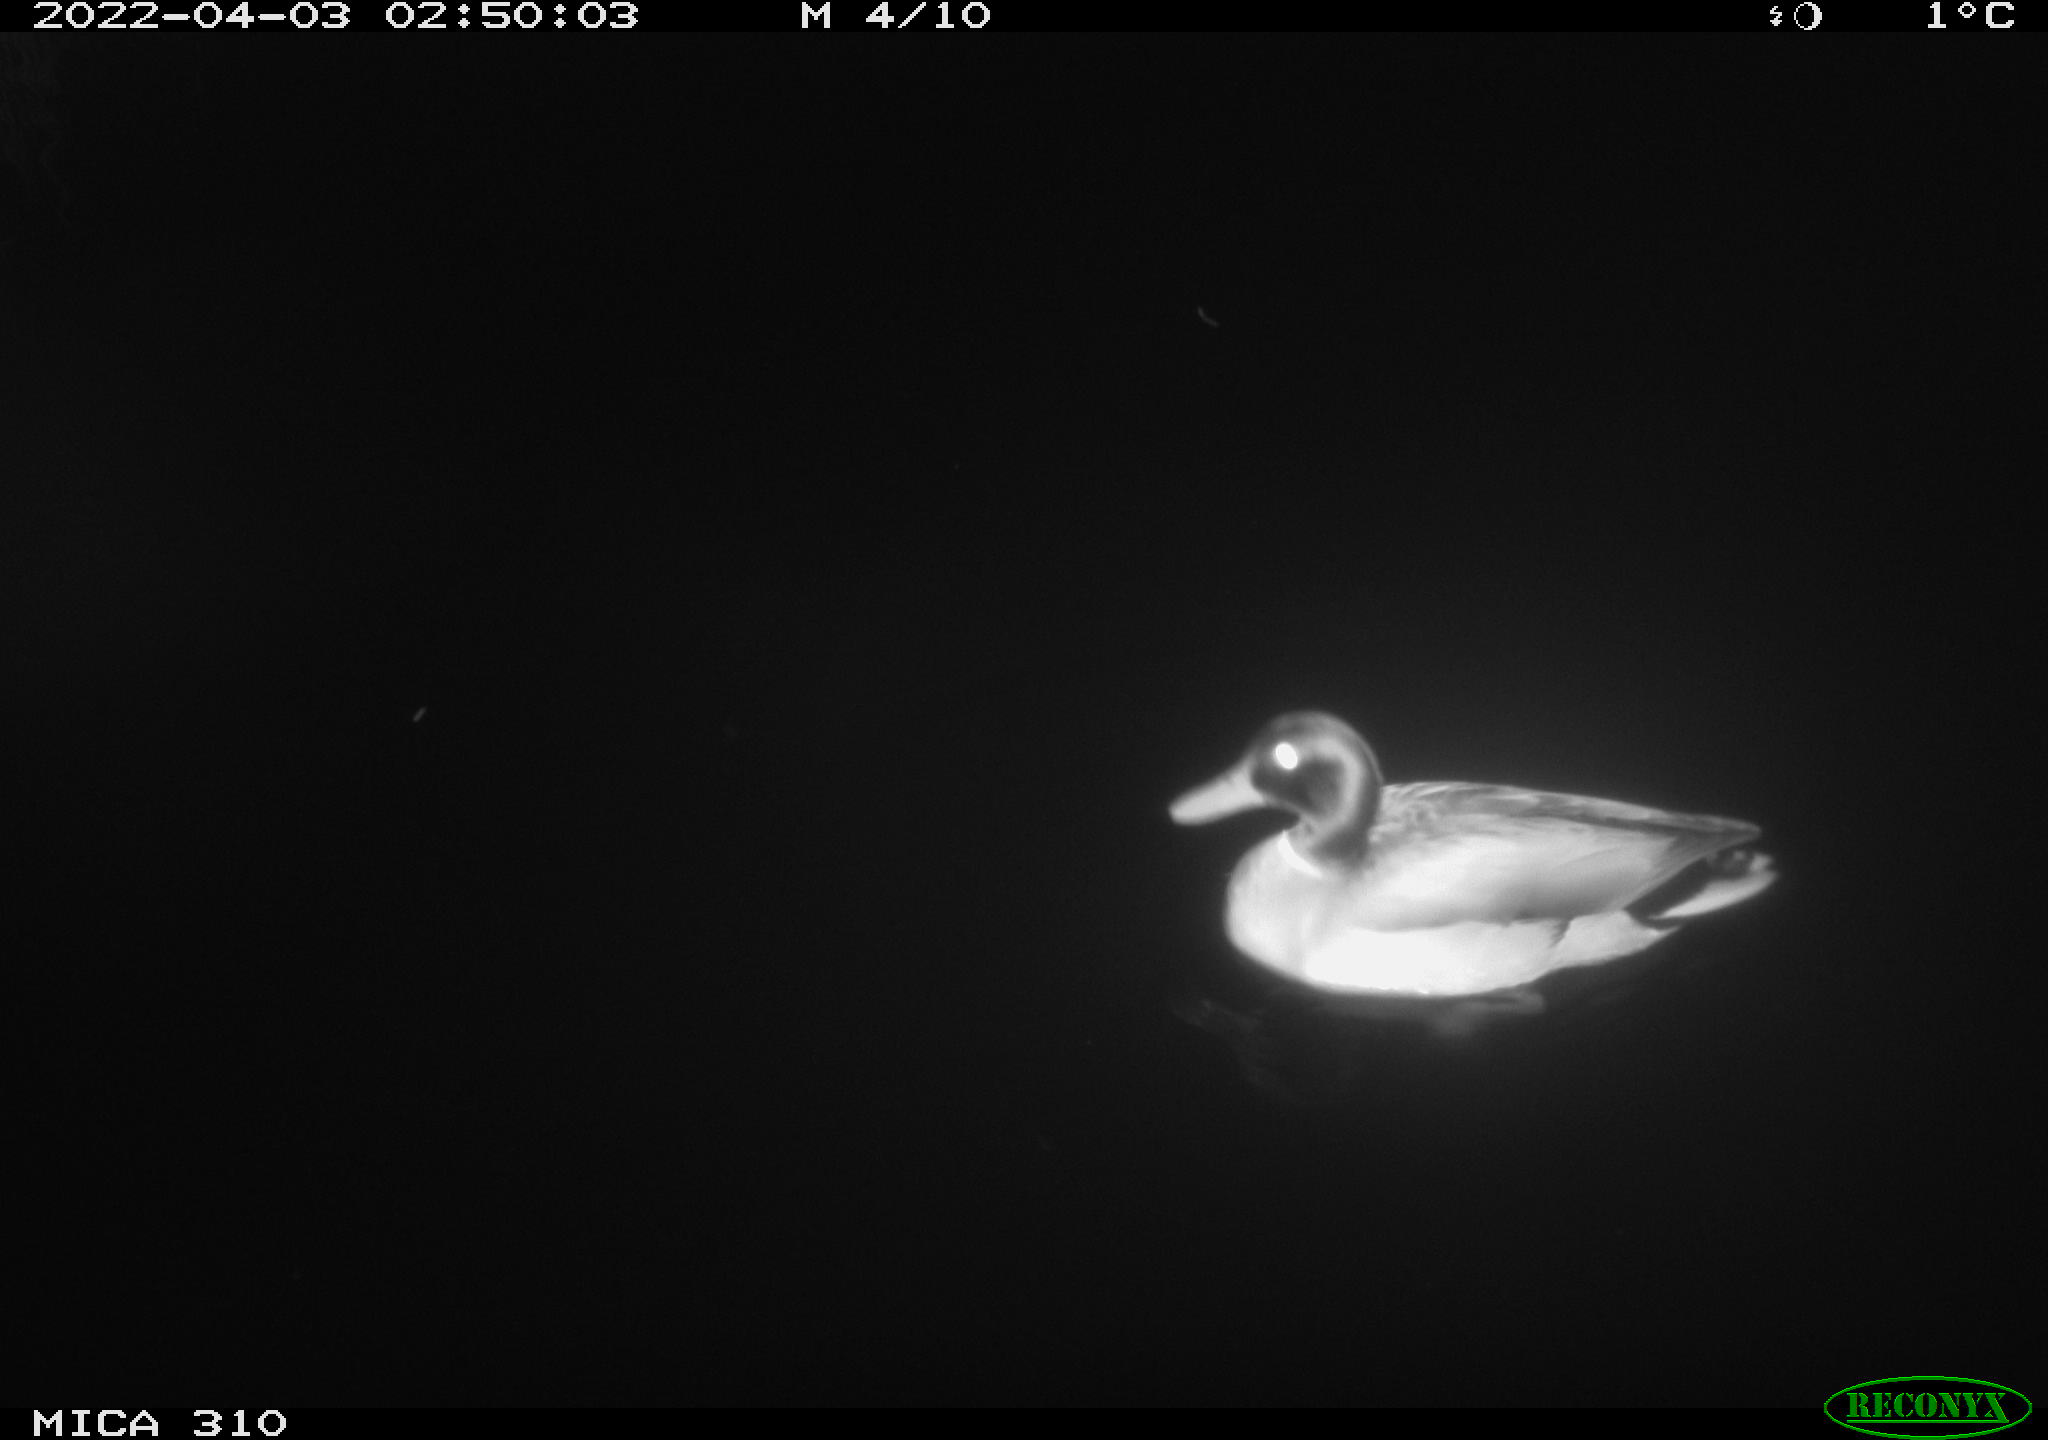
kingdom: Animalia
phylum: Chordata
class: Aves
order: Anseriformes
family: Anatidae
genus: Anas
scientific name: Anas platyrhynchos
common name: Mallard
